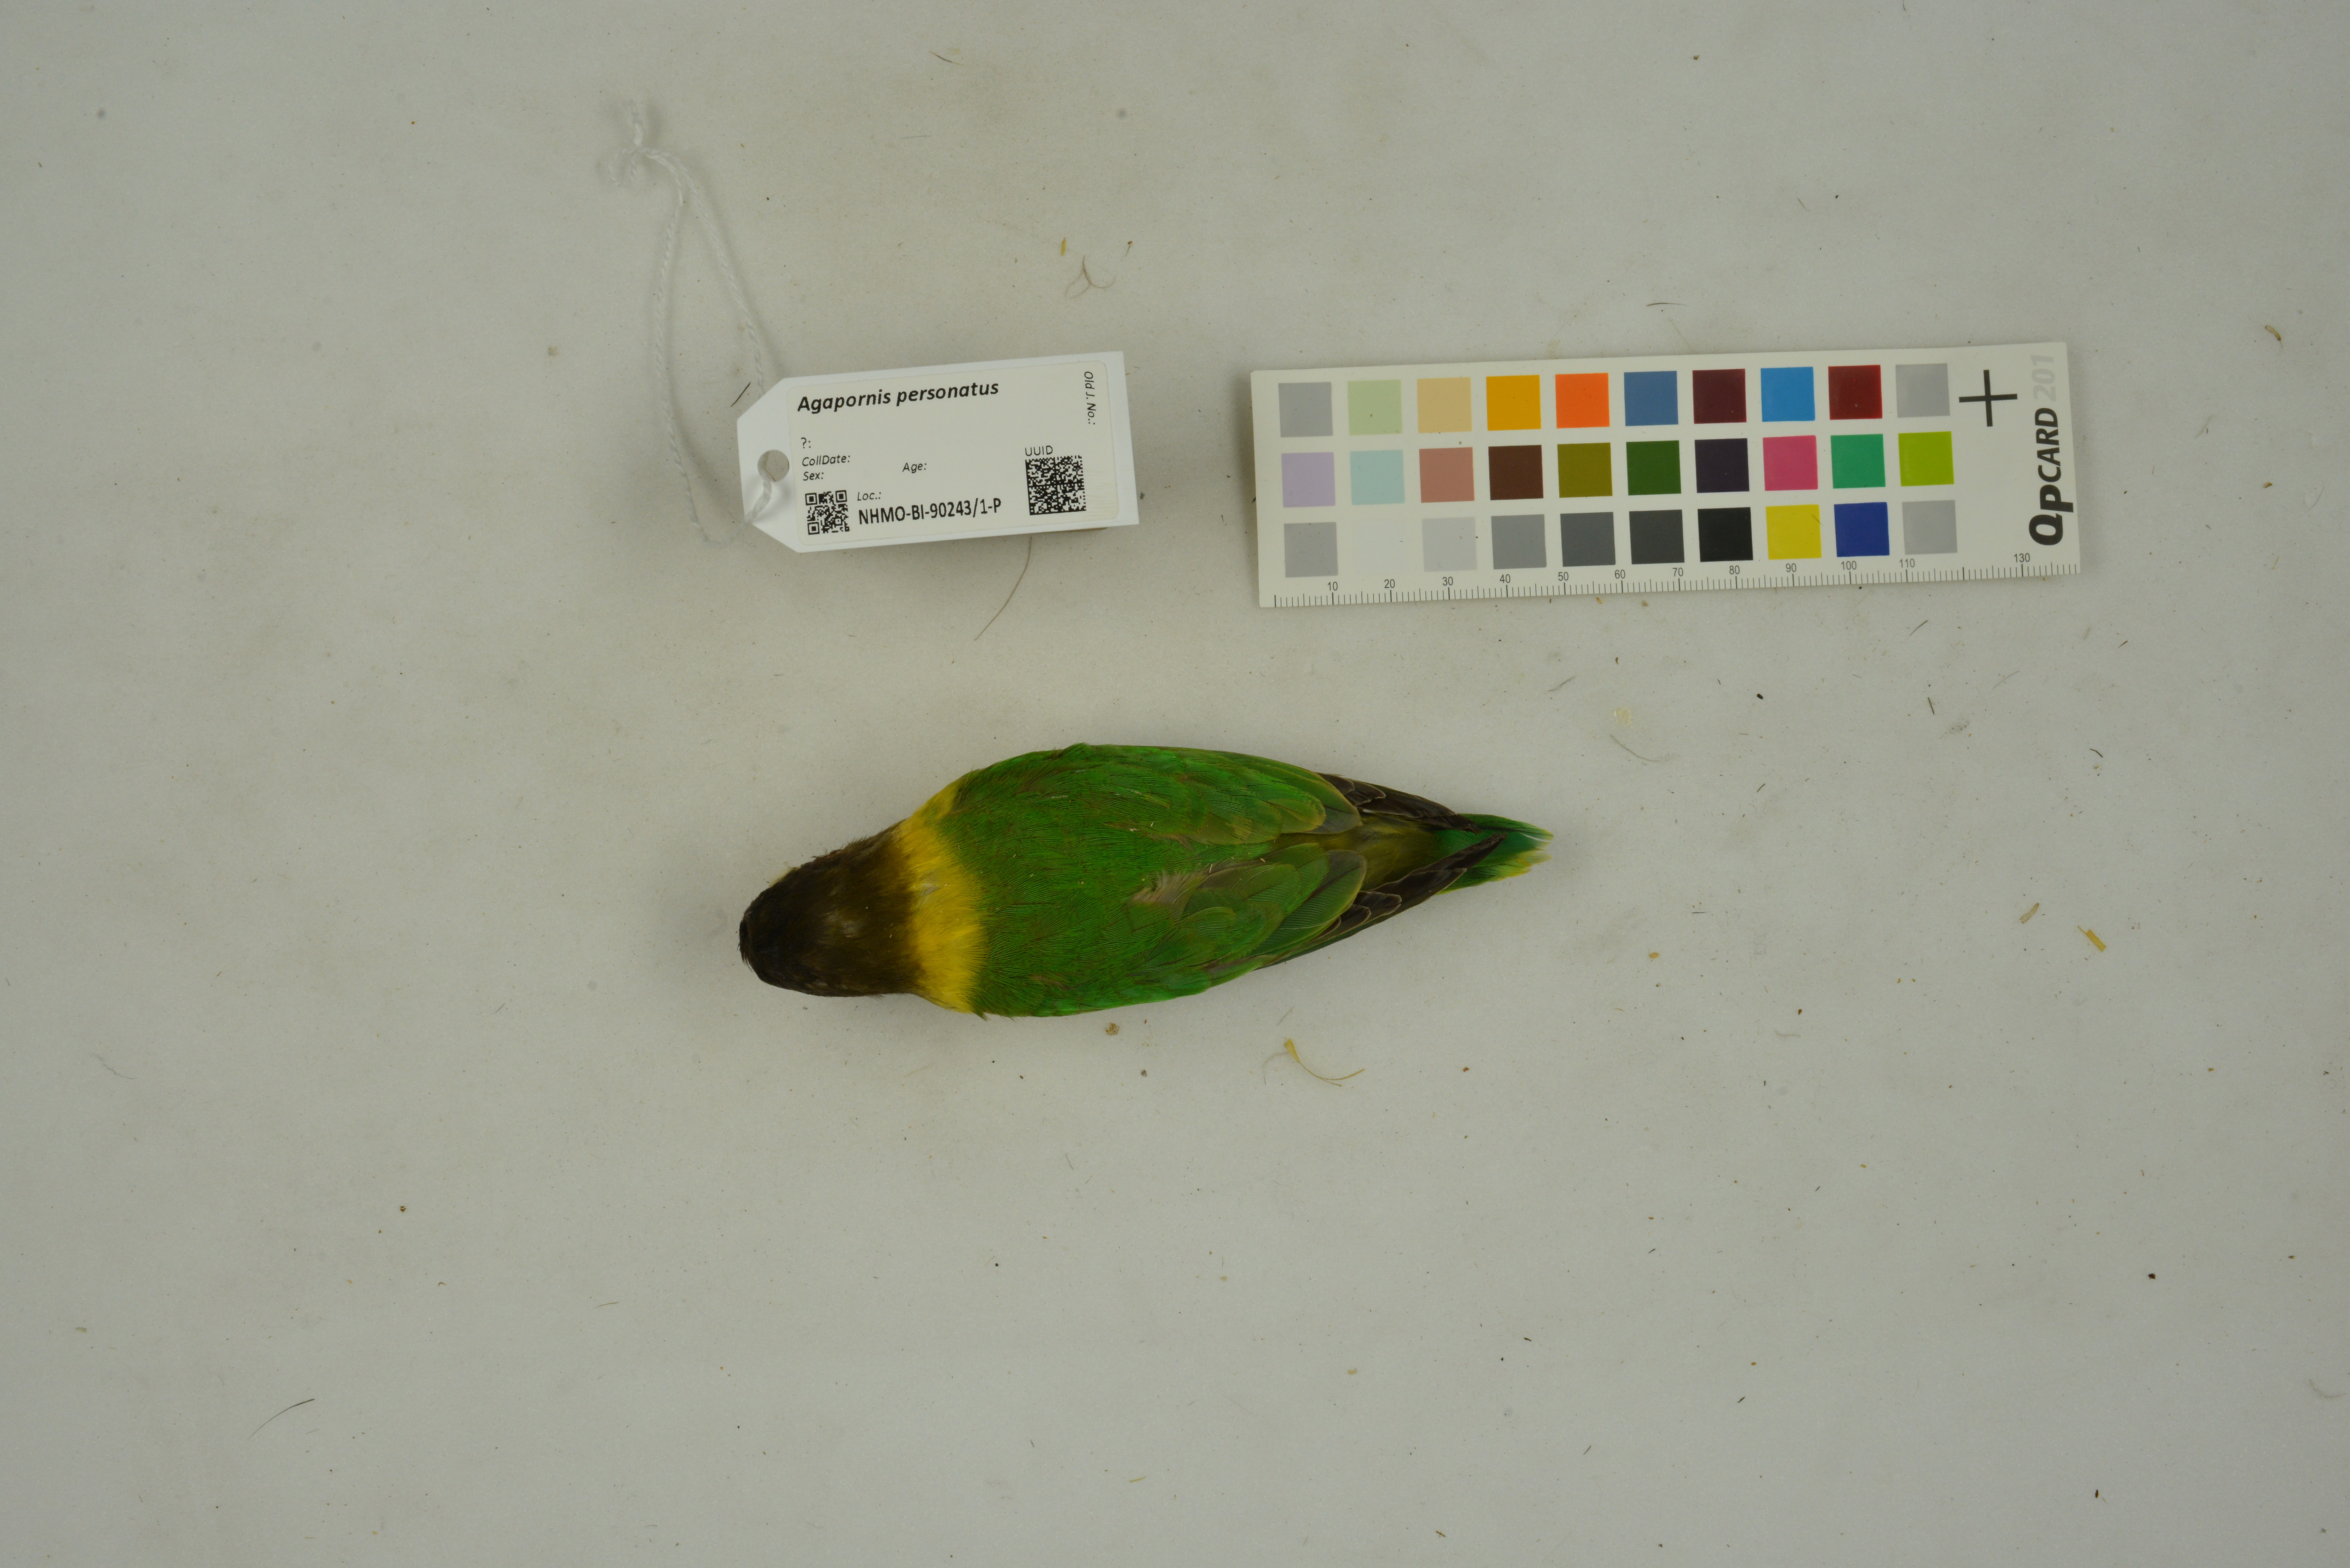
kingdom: Animalia
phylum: Chordata
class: Aves
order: Psittaciformes
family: Psittacidae
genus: Agapornis
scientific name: Agapornis personatus
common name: Yellow-collared lovebird
